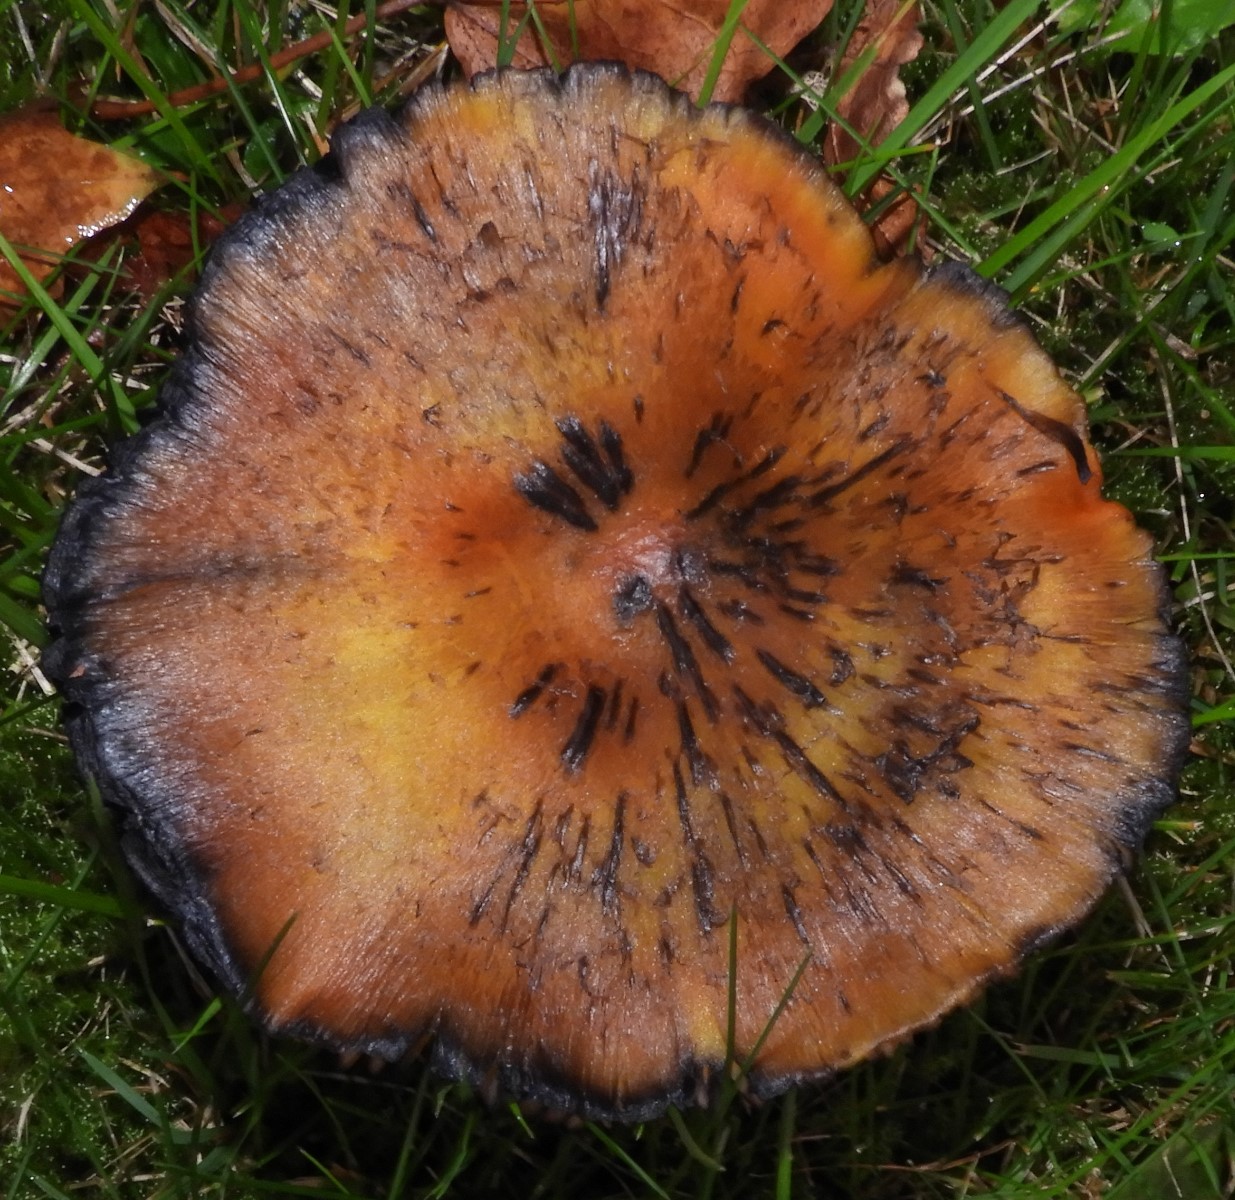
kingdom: Fungi
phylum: Basidiomycota
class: Agaricomycetes
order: Agaricales
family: Hygrophoraceae
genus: Hygrocybe
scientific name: Hygrocybe conica
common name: kegle-vokshat
